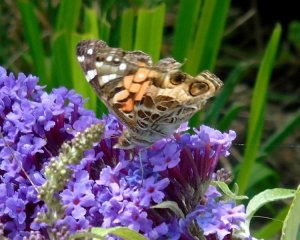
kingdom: Animalia
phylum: Arthropoda
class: Insecta
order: Lepidoptera
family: Nymphalidae
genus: Vanessa
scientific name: Vanessa virginiensis
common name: American Lady
